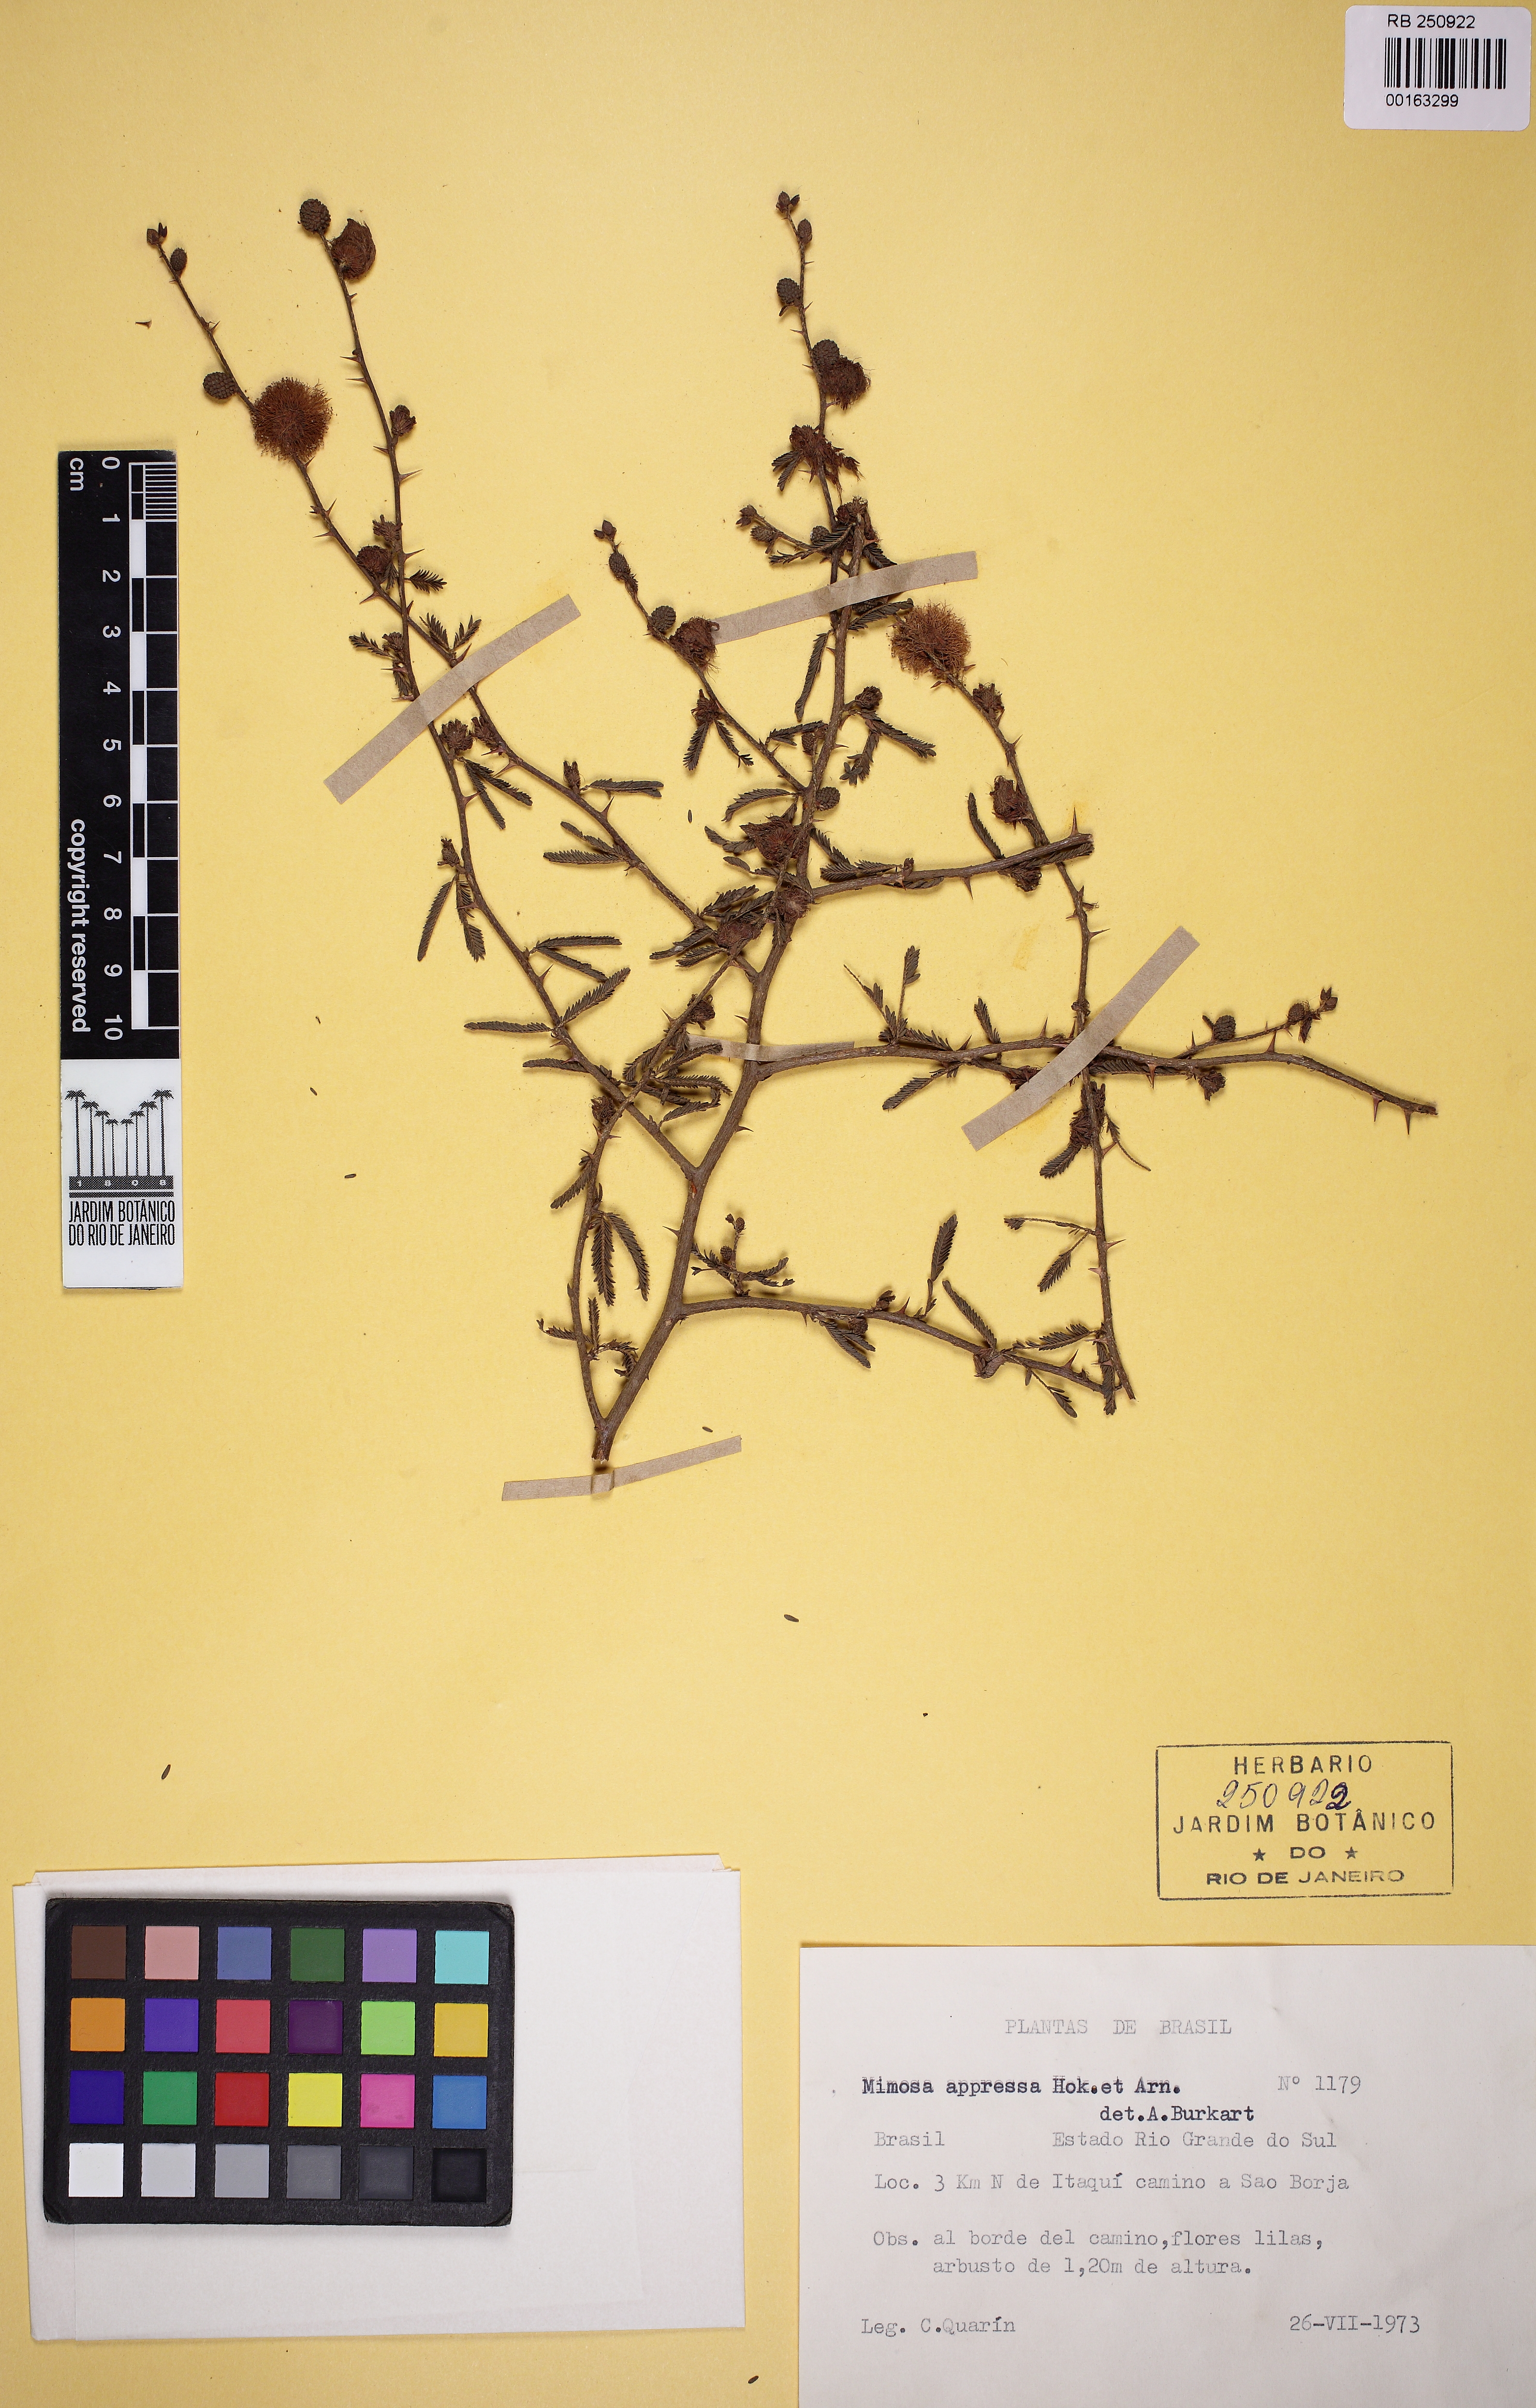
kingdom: Plantae
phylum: Tracheophyta
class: Magnoliopsida
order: Fabales
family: Fabaceae
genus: Mimosa
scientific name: Mimosa adpressa
